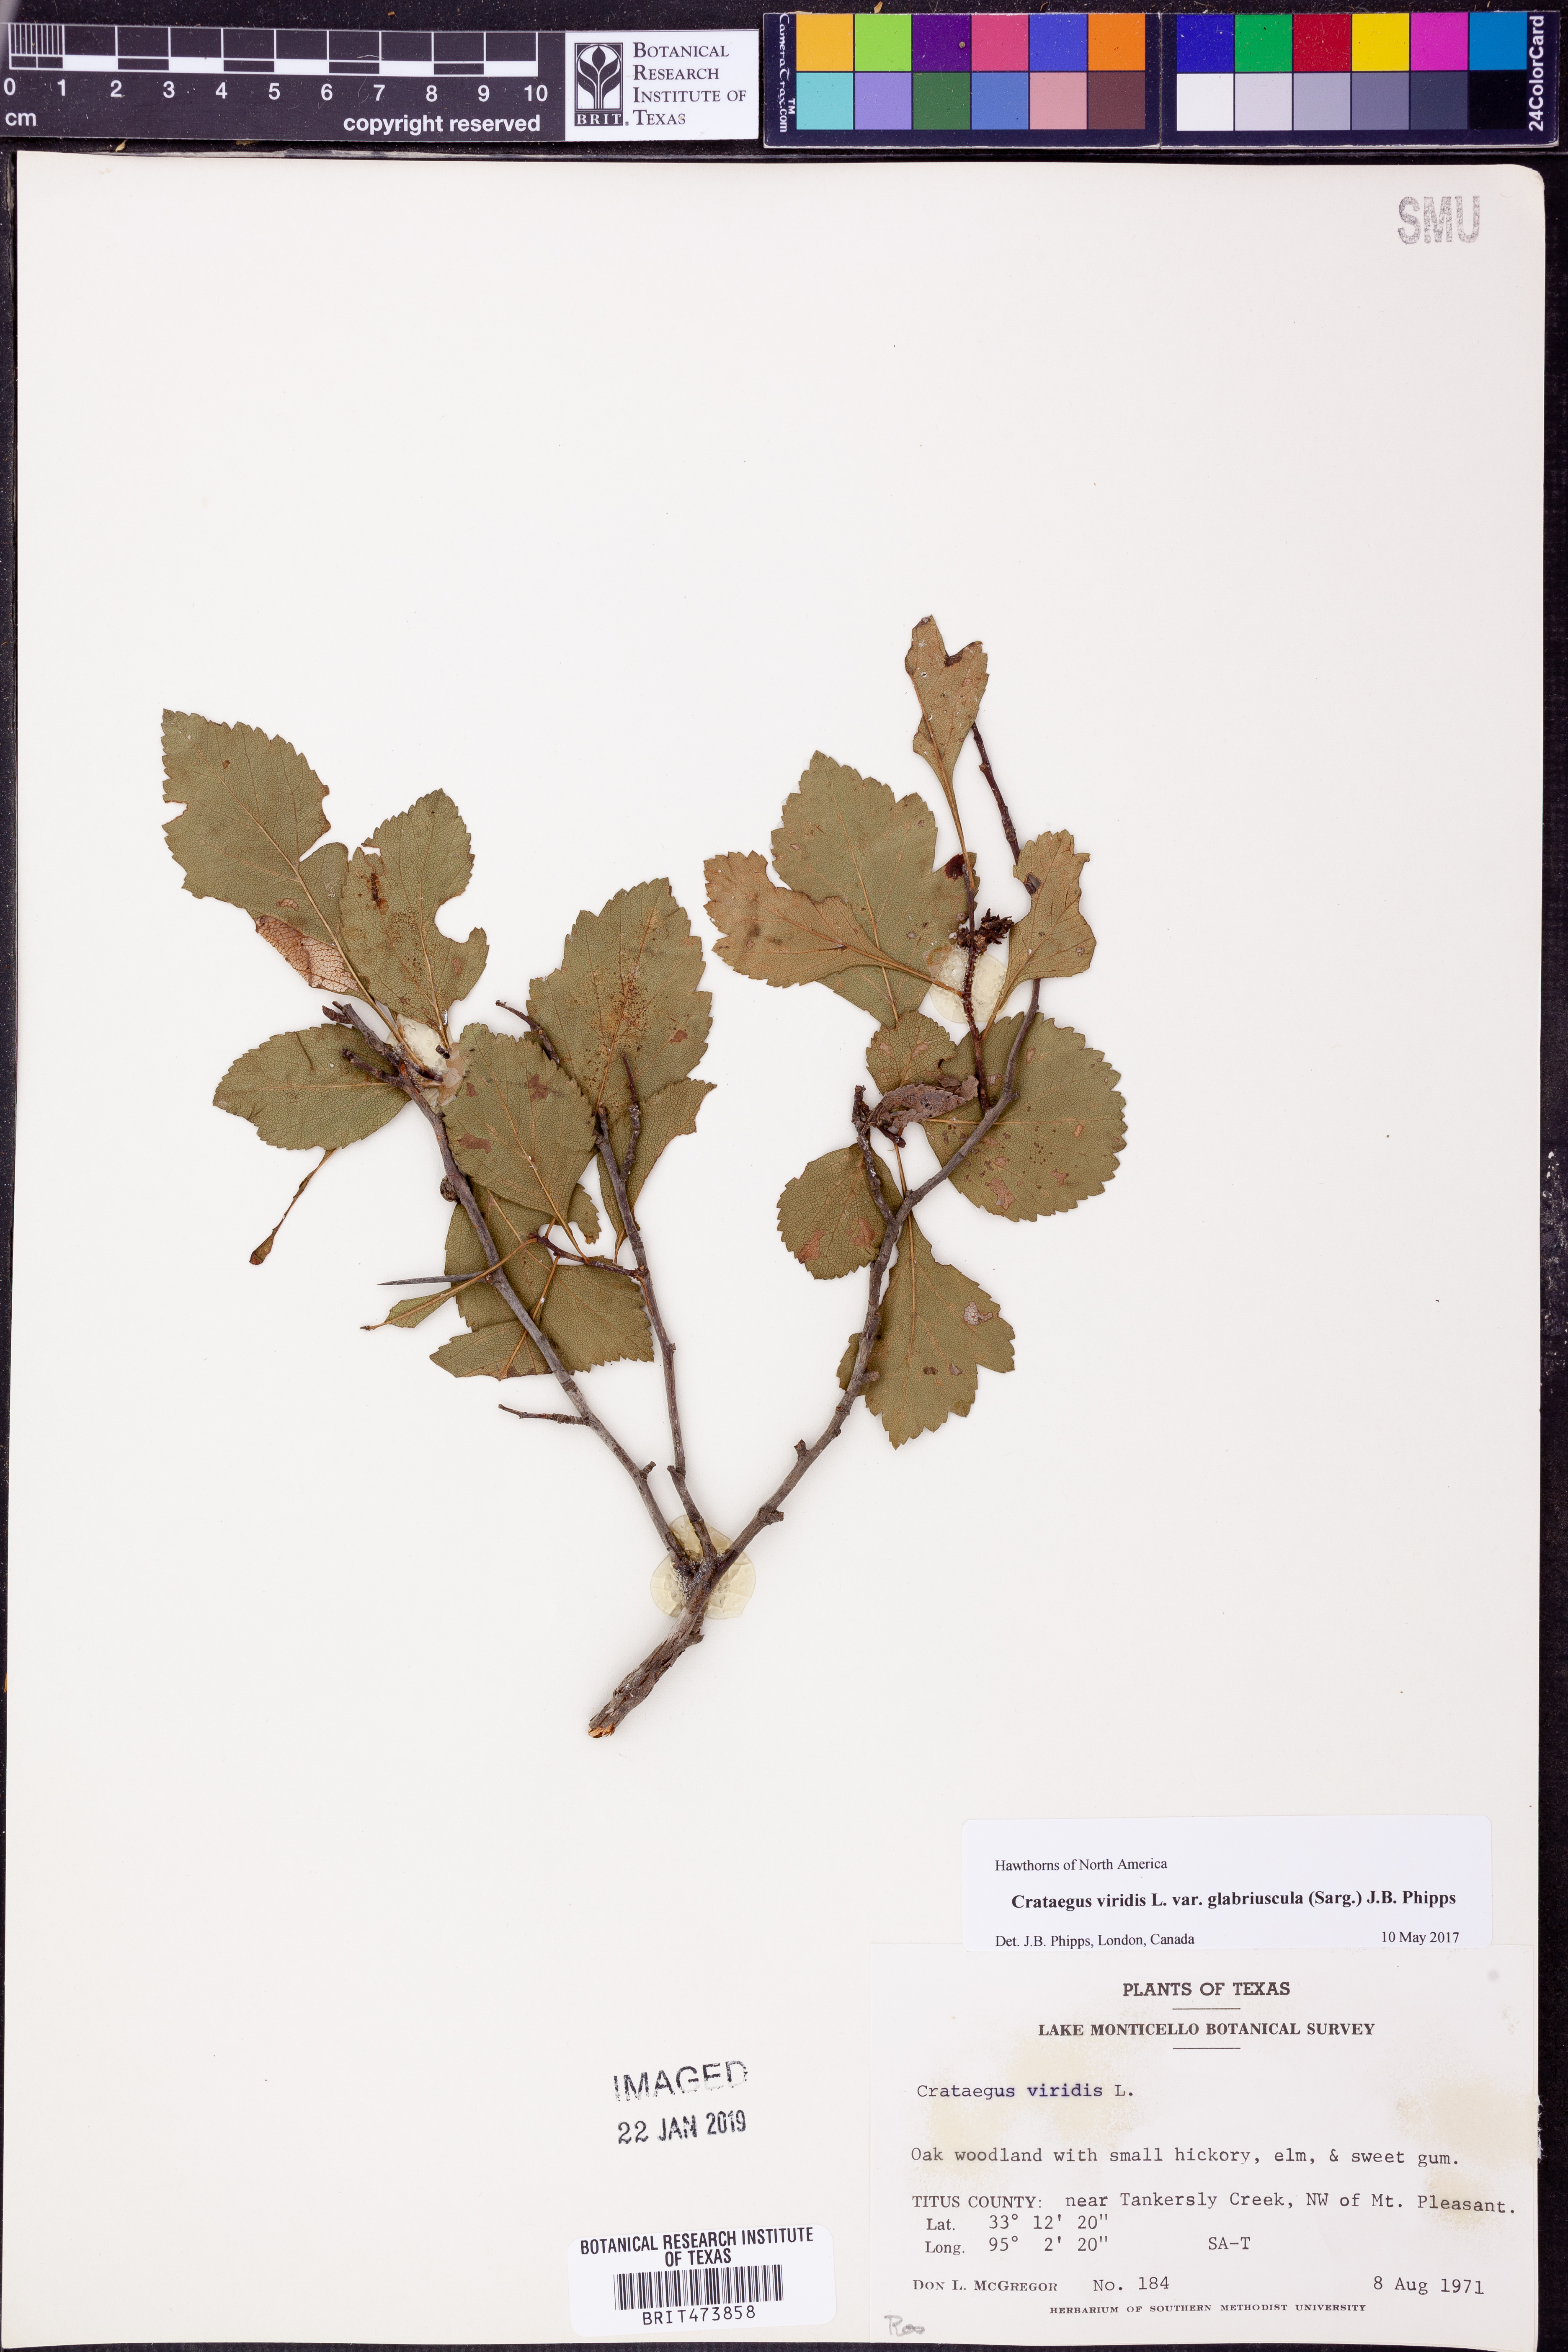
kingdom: Plantae
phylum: Tracheophyta
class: Magnoliopsida
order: Rosales
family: Rosaceae
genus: Crataegus
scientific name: Crataegus viridis
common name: Southernthorn
